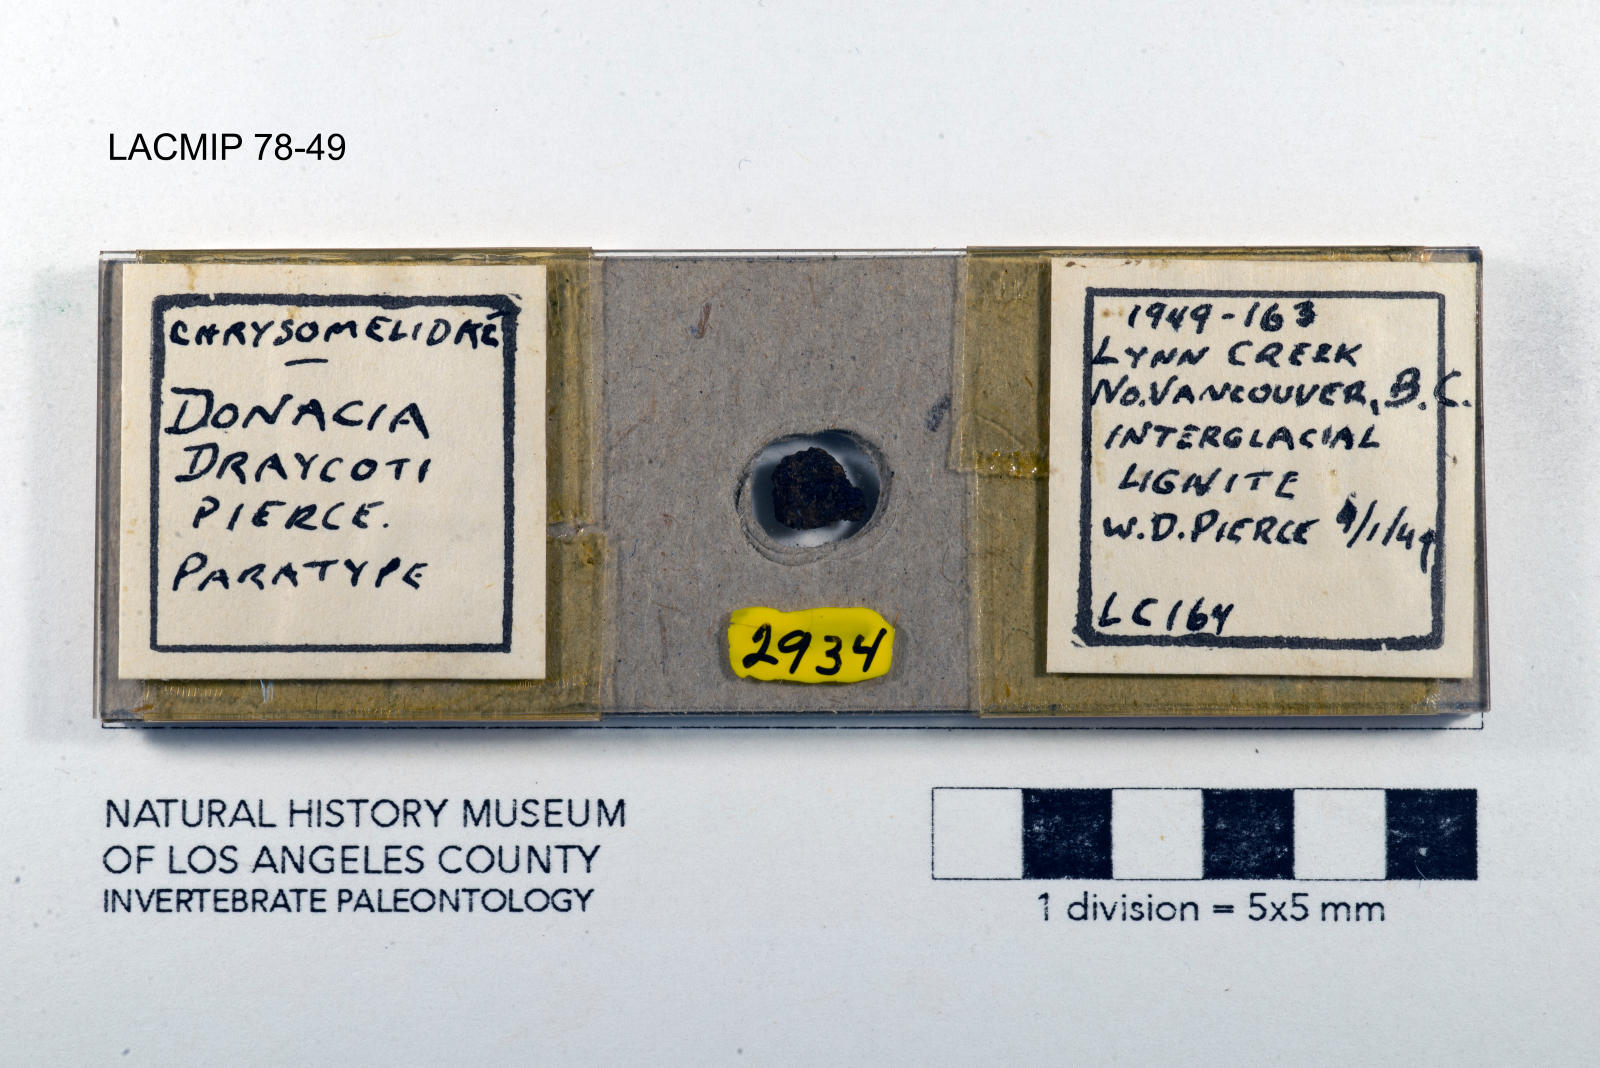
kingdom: Animalia
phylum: Arthropoda
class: Insecta
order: Coleoptera
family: Chrysomelidae
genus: Donacia
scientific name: Donacia draycoti
